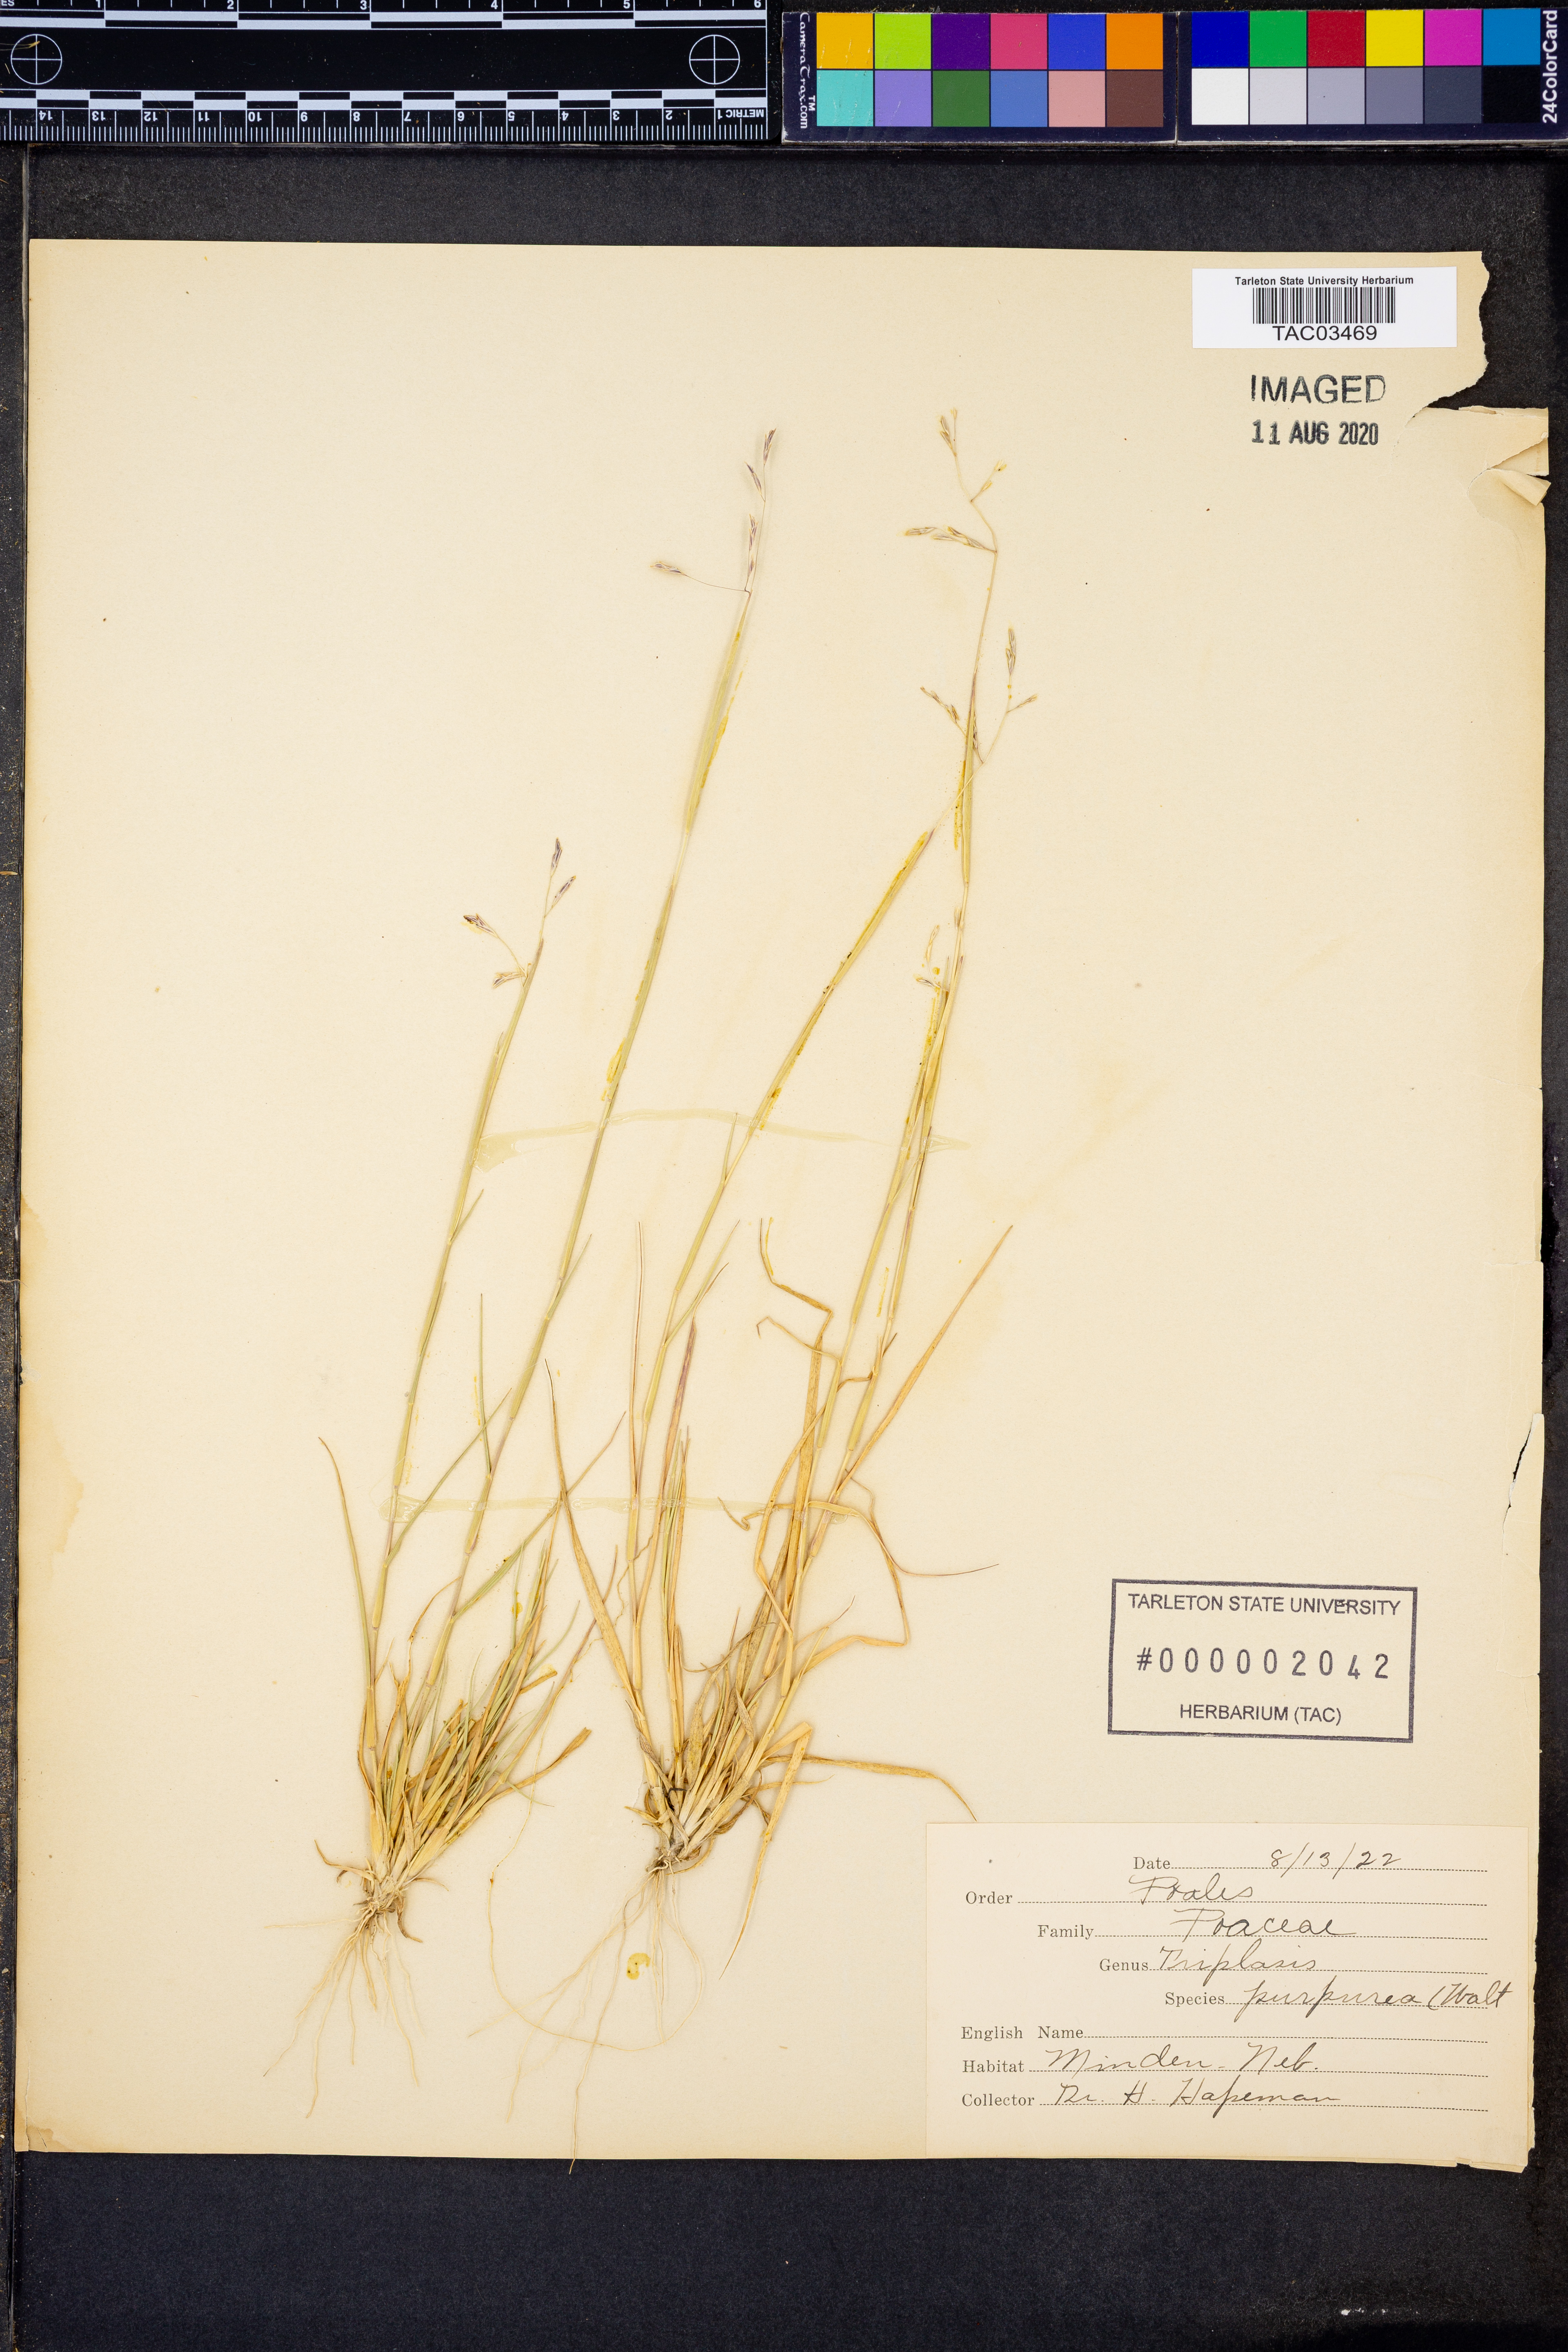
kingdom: Plantae
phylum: Tracheophyta
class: Liliopsida
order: Poales
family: Poaceae
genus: Triplasis
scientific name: Triplasis purpurea
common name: Purple sand grass
